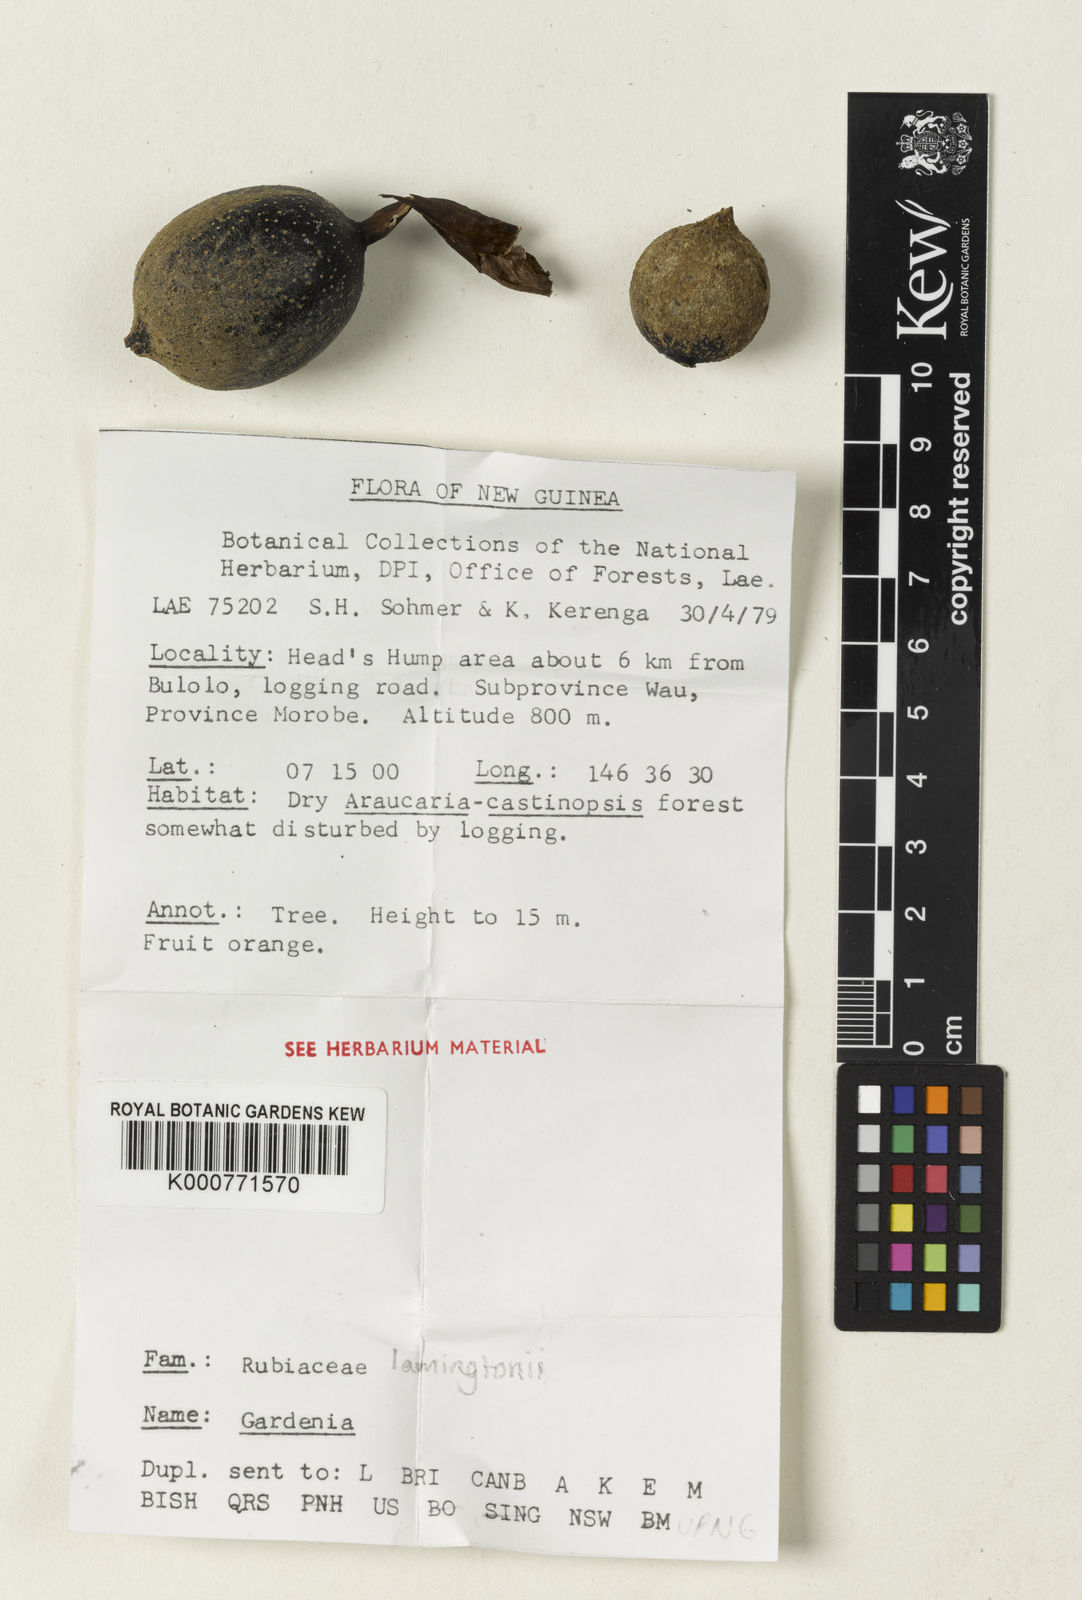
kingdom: Plantae
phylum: Tracheophyta
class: Magnoliopsida
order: Gentianales
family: Rubiaceae
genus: Gardenia
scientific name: Gardenia lamingtonii
